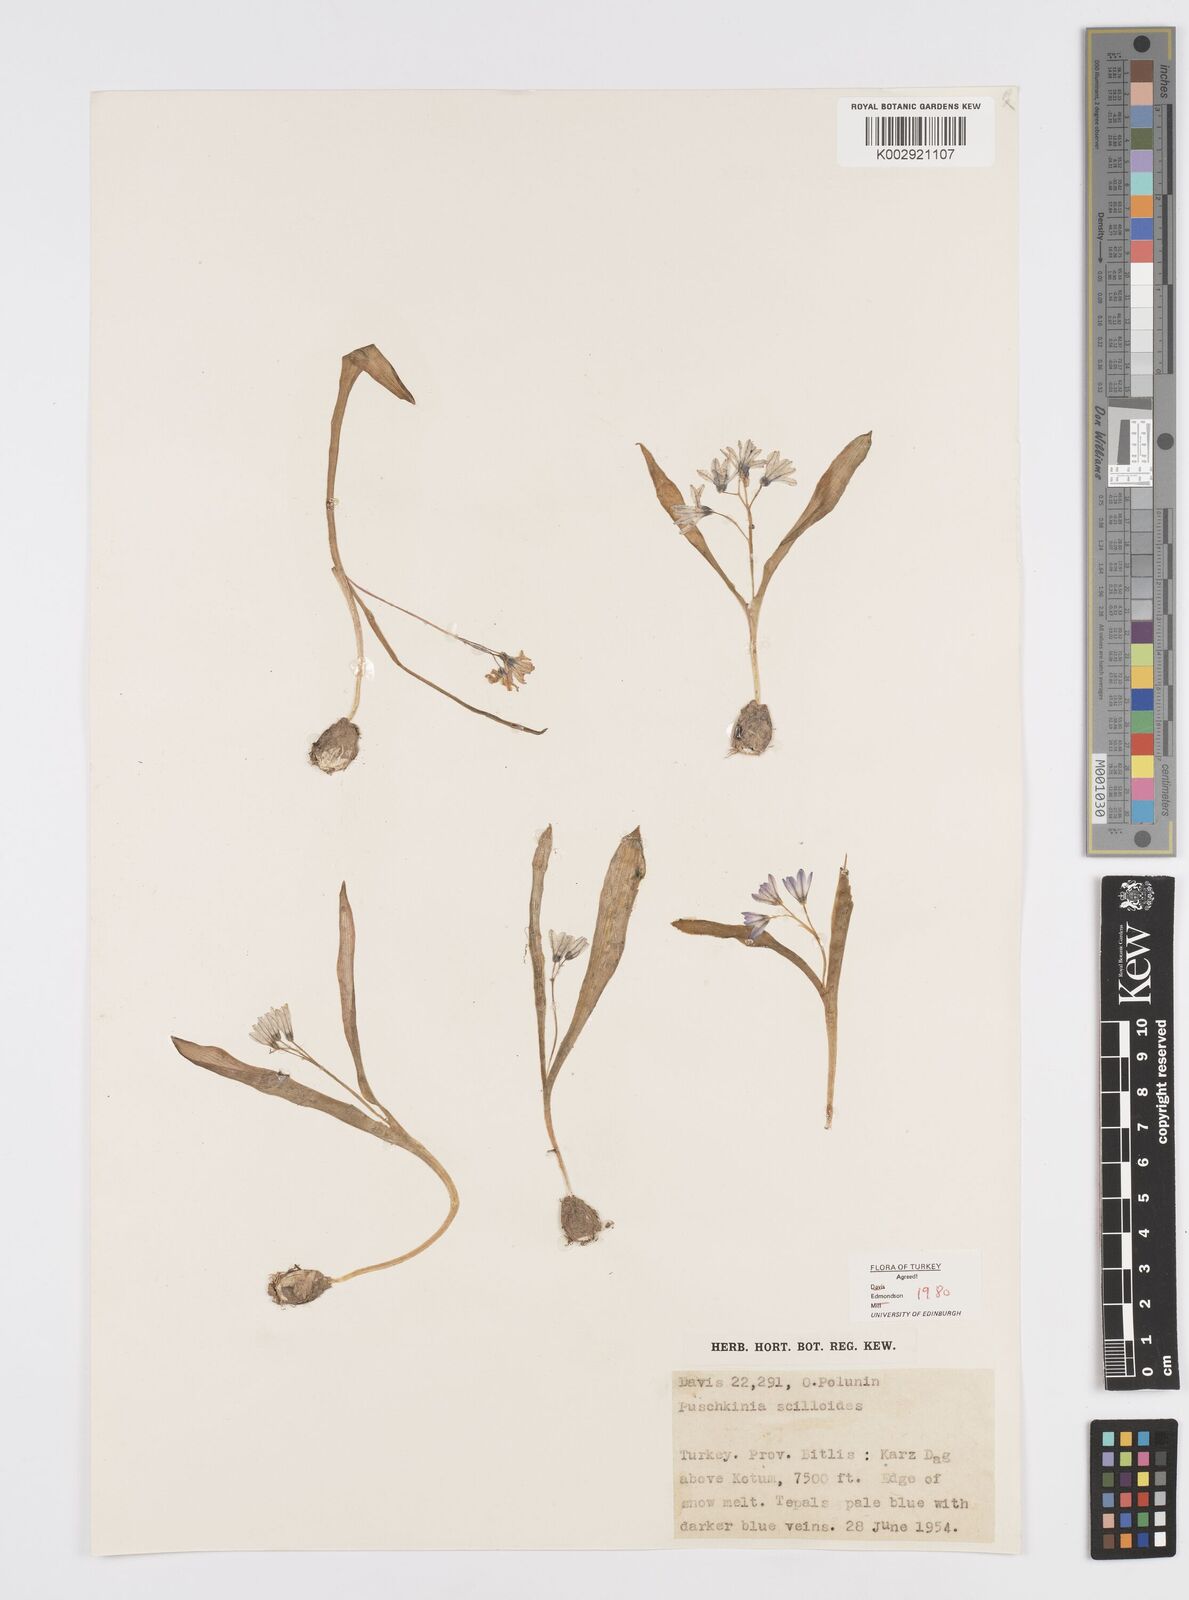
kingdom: Plantae
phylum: Tracheophyta
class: Liliopsida
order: Asparagales
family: Asparagaceae
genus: Puschkinia
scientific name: Puschkinia scilloides
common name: Striped squill
